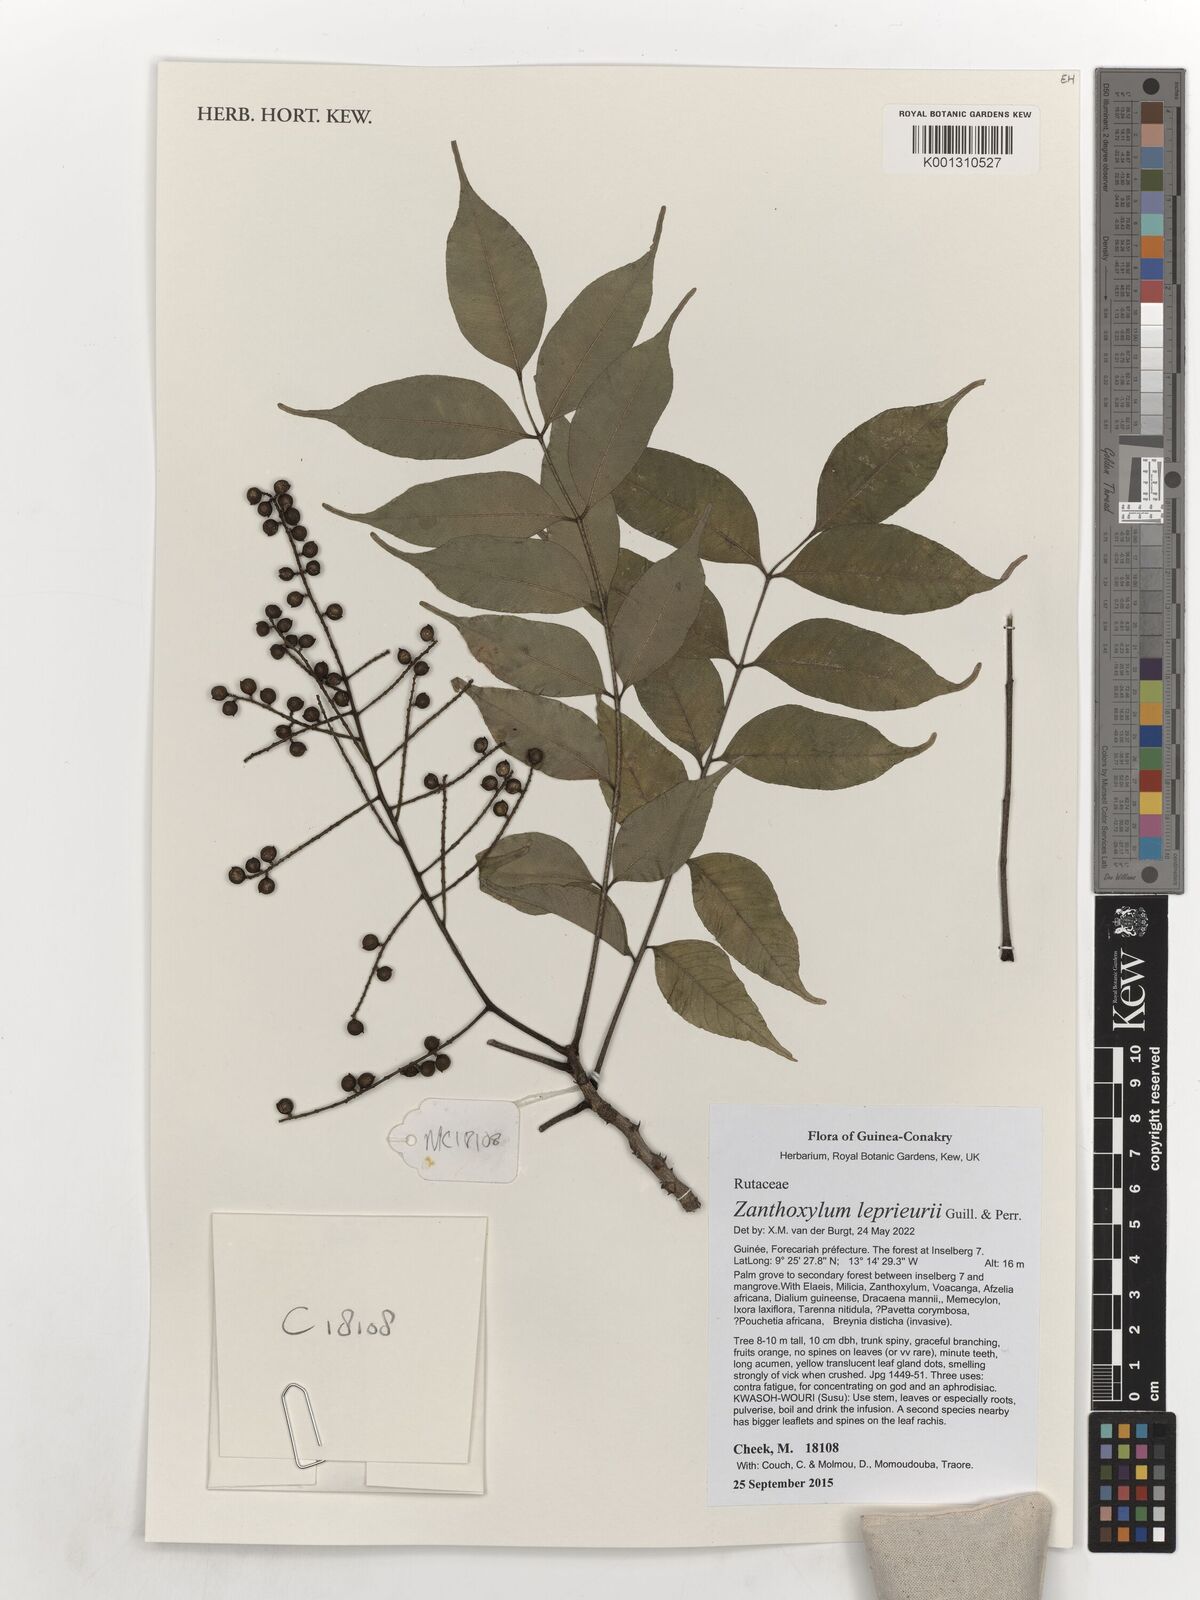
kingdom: Plantae
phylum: Tracheophyta
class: Magnoliopsida
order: Sapindales
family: Rutaceae
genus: Zanthoxylum
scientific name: Zanthoxylum leprieurii
